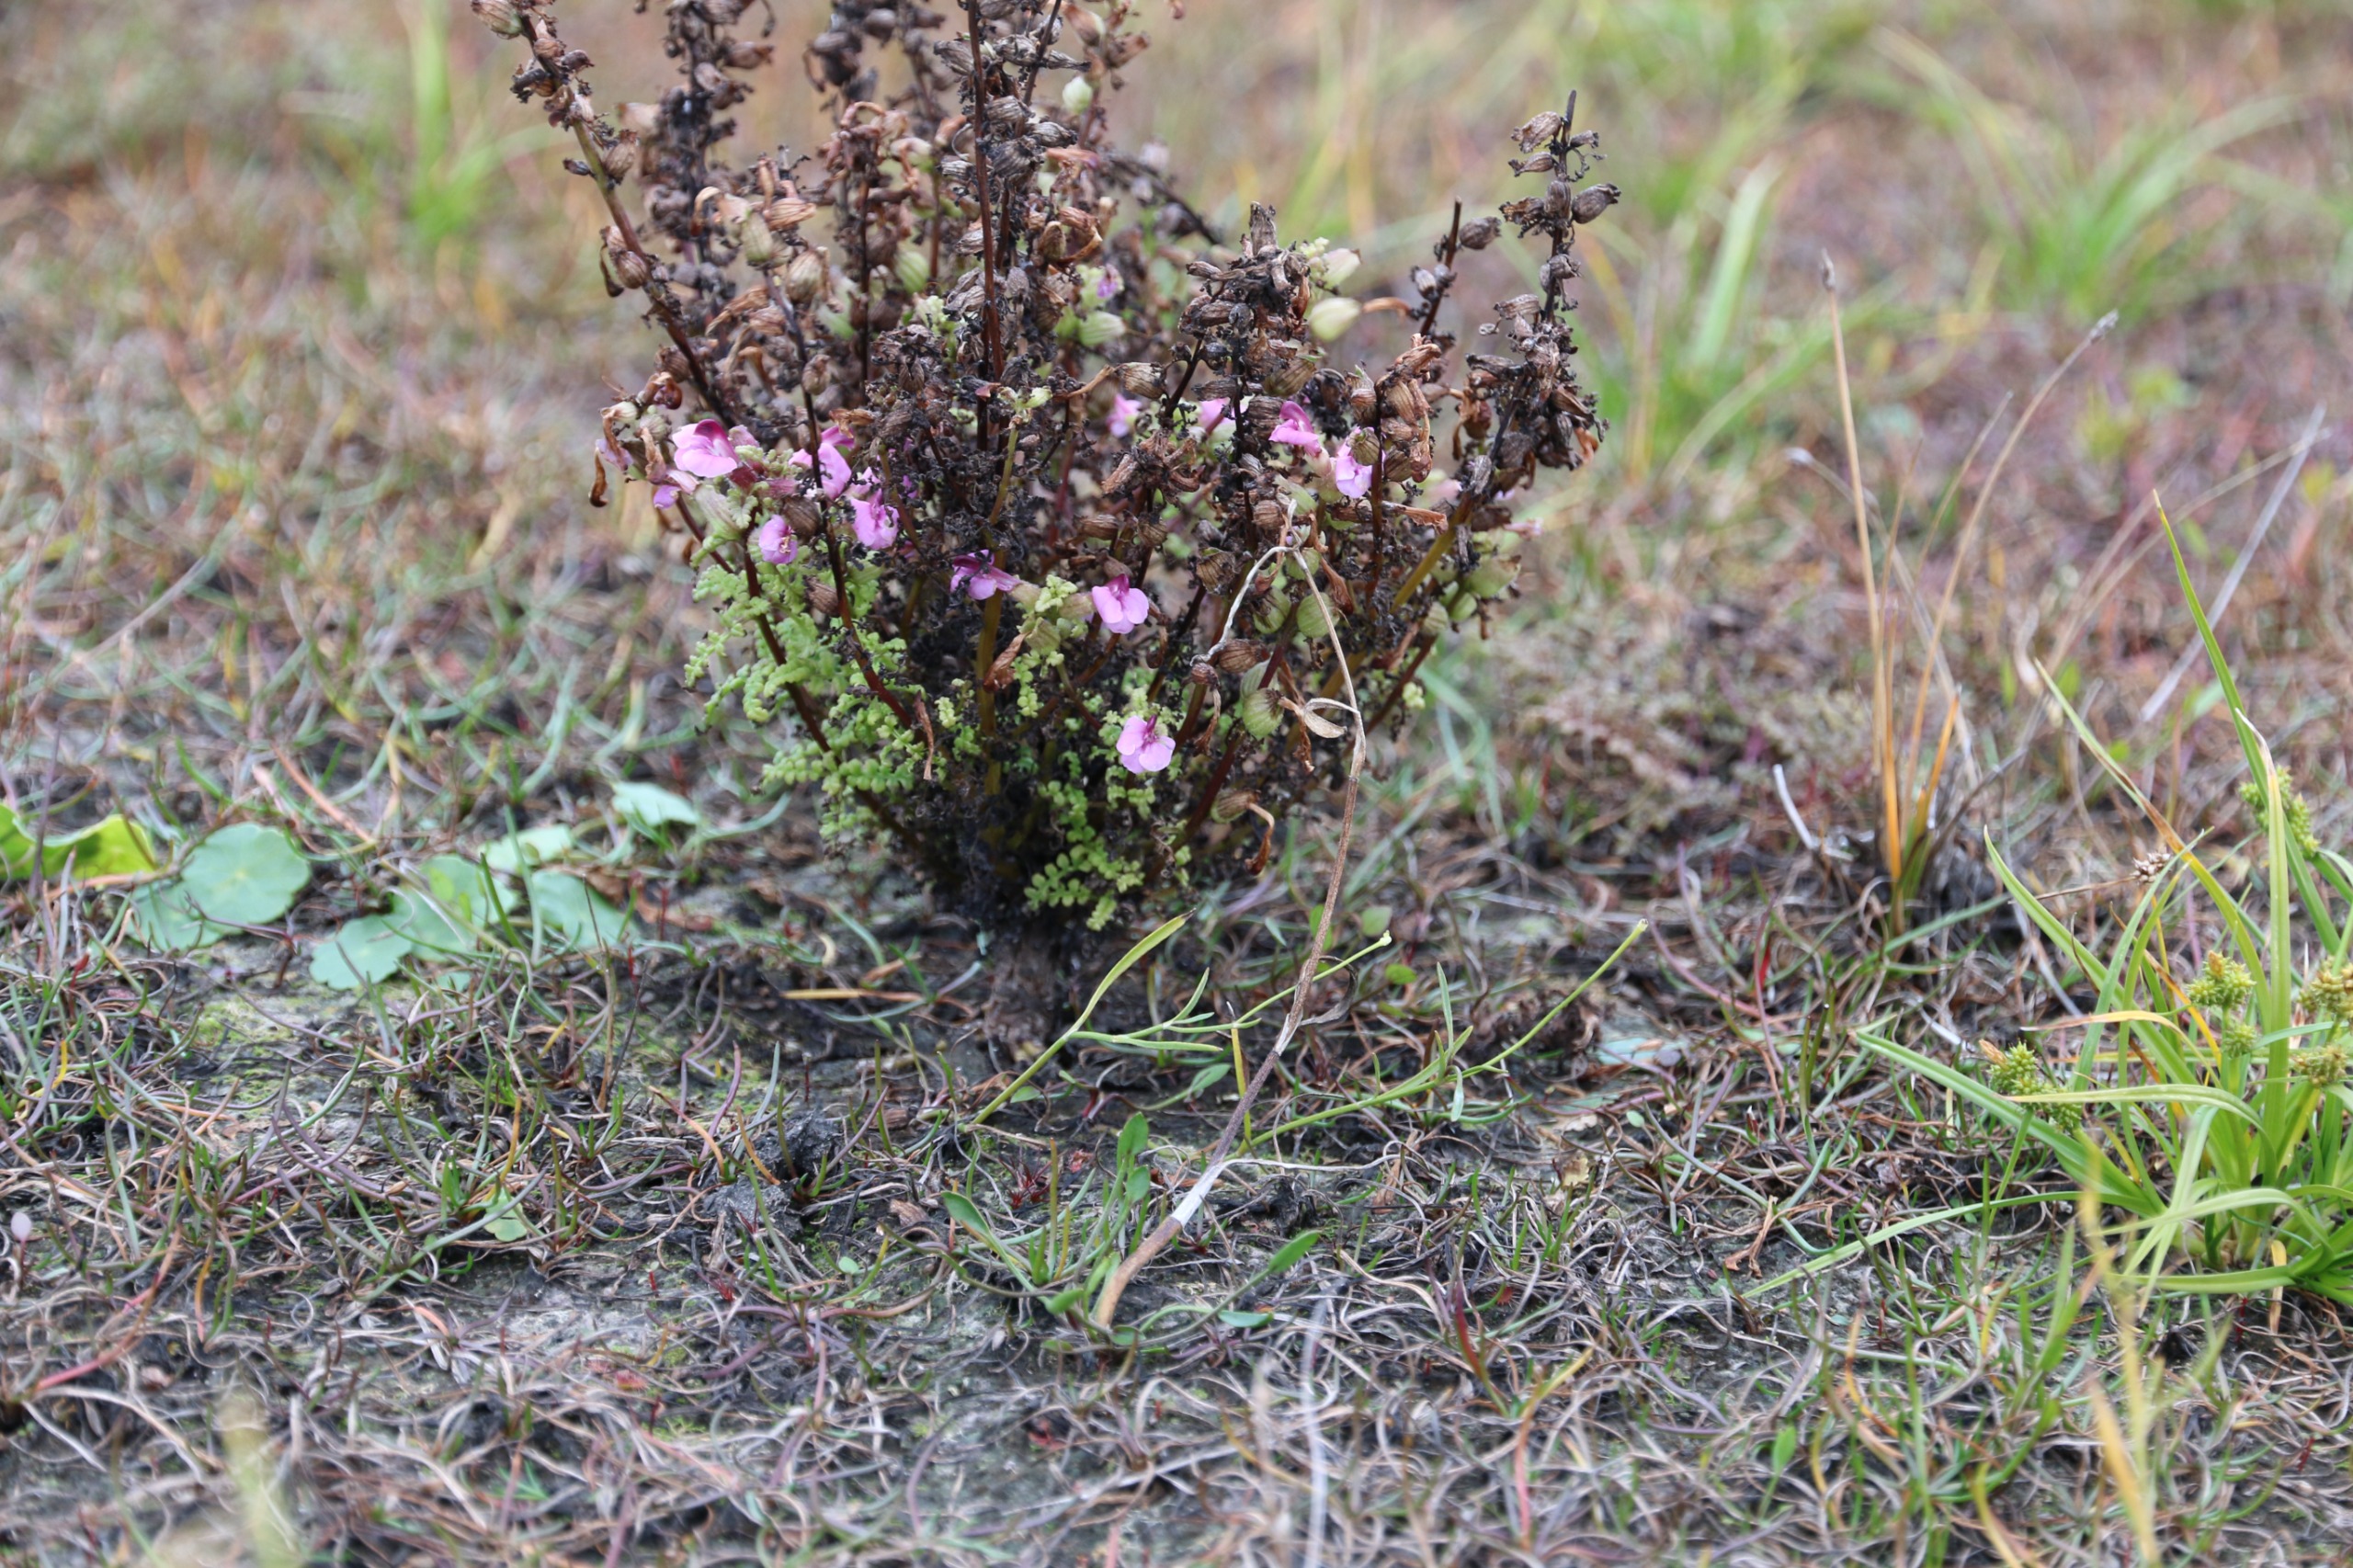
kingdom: Plantae
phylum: Tracheophyta
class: Magnoliopsida
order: Lamiales
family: Orobanchaceae
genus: Pedicularis
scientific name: Pedicularis palustris
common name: Eng-troldurt (underart)
